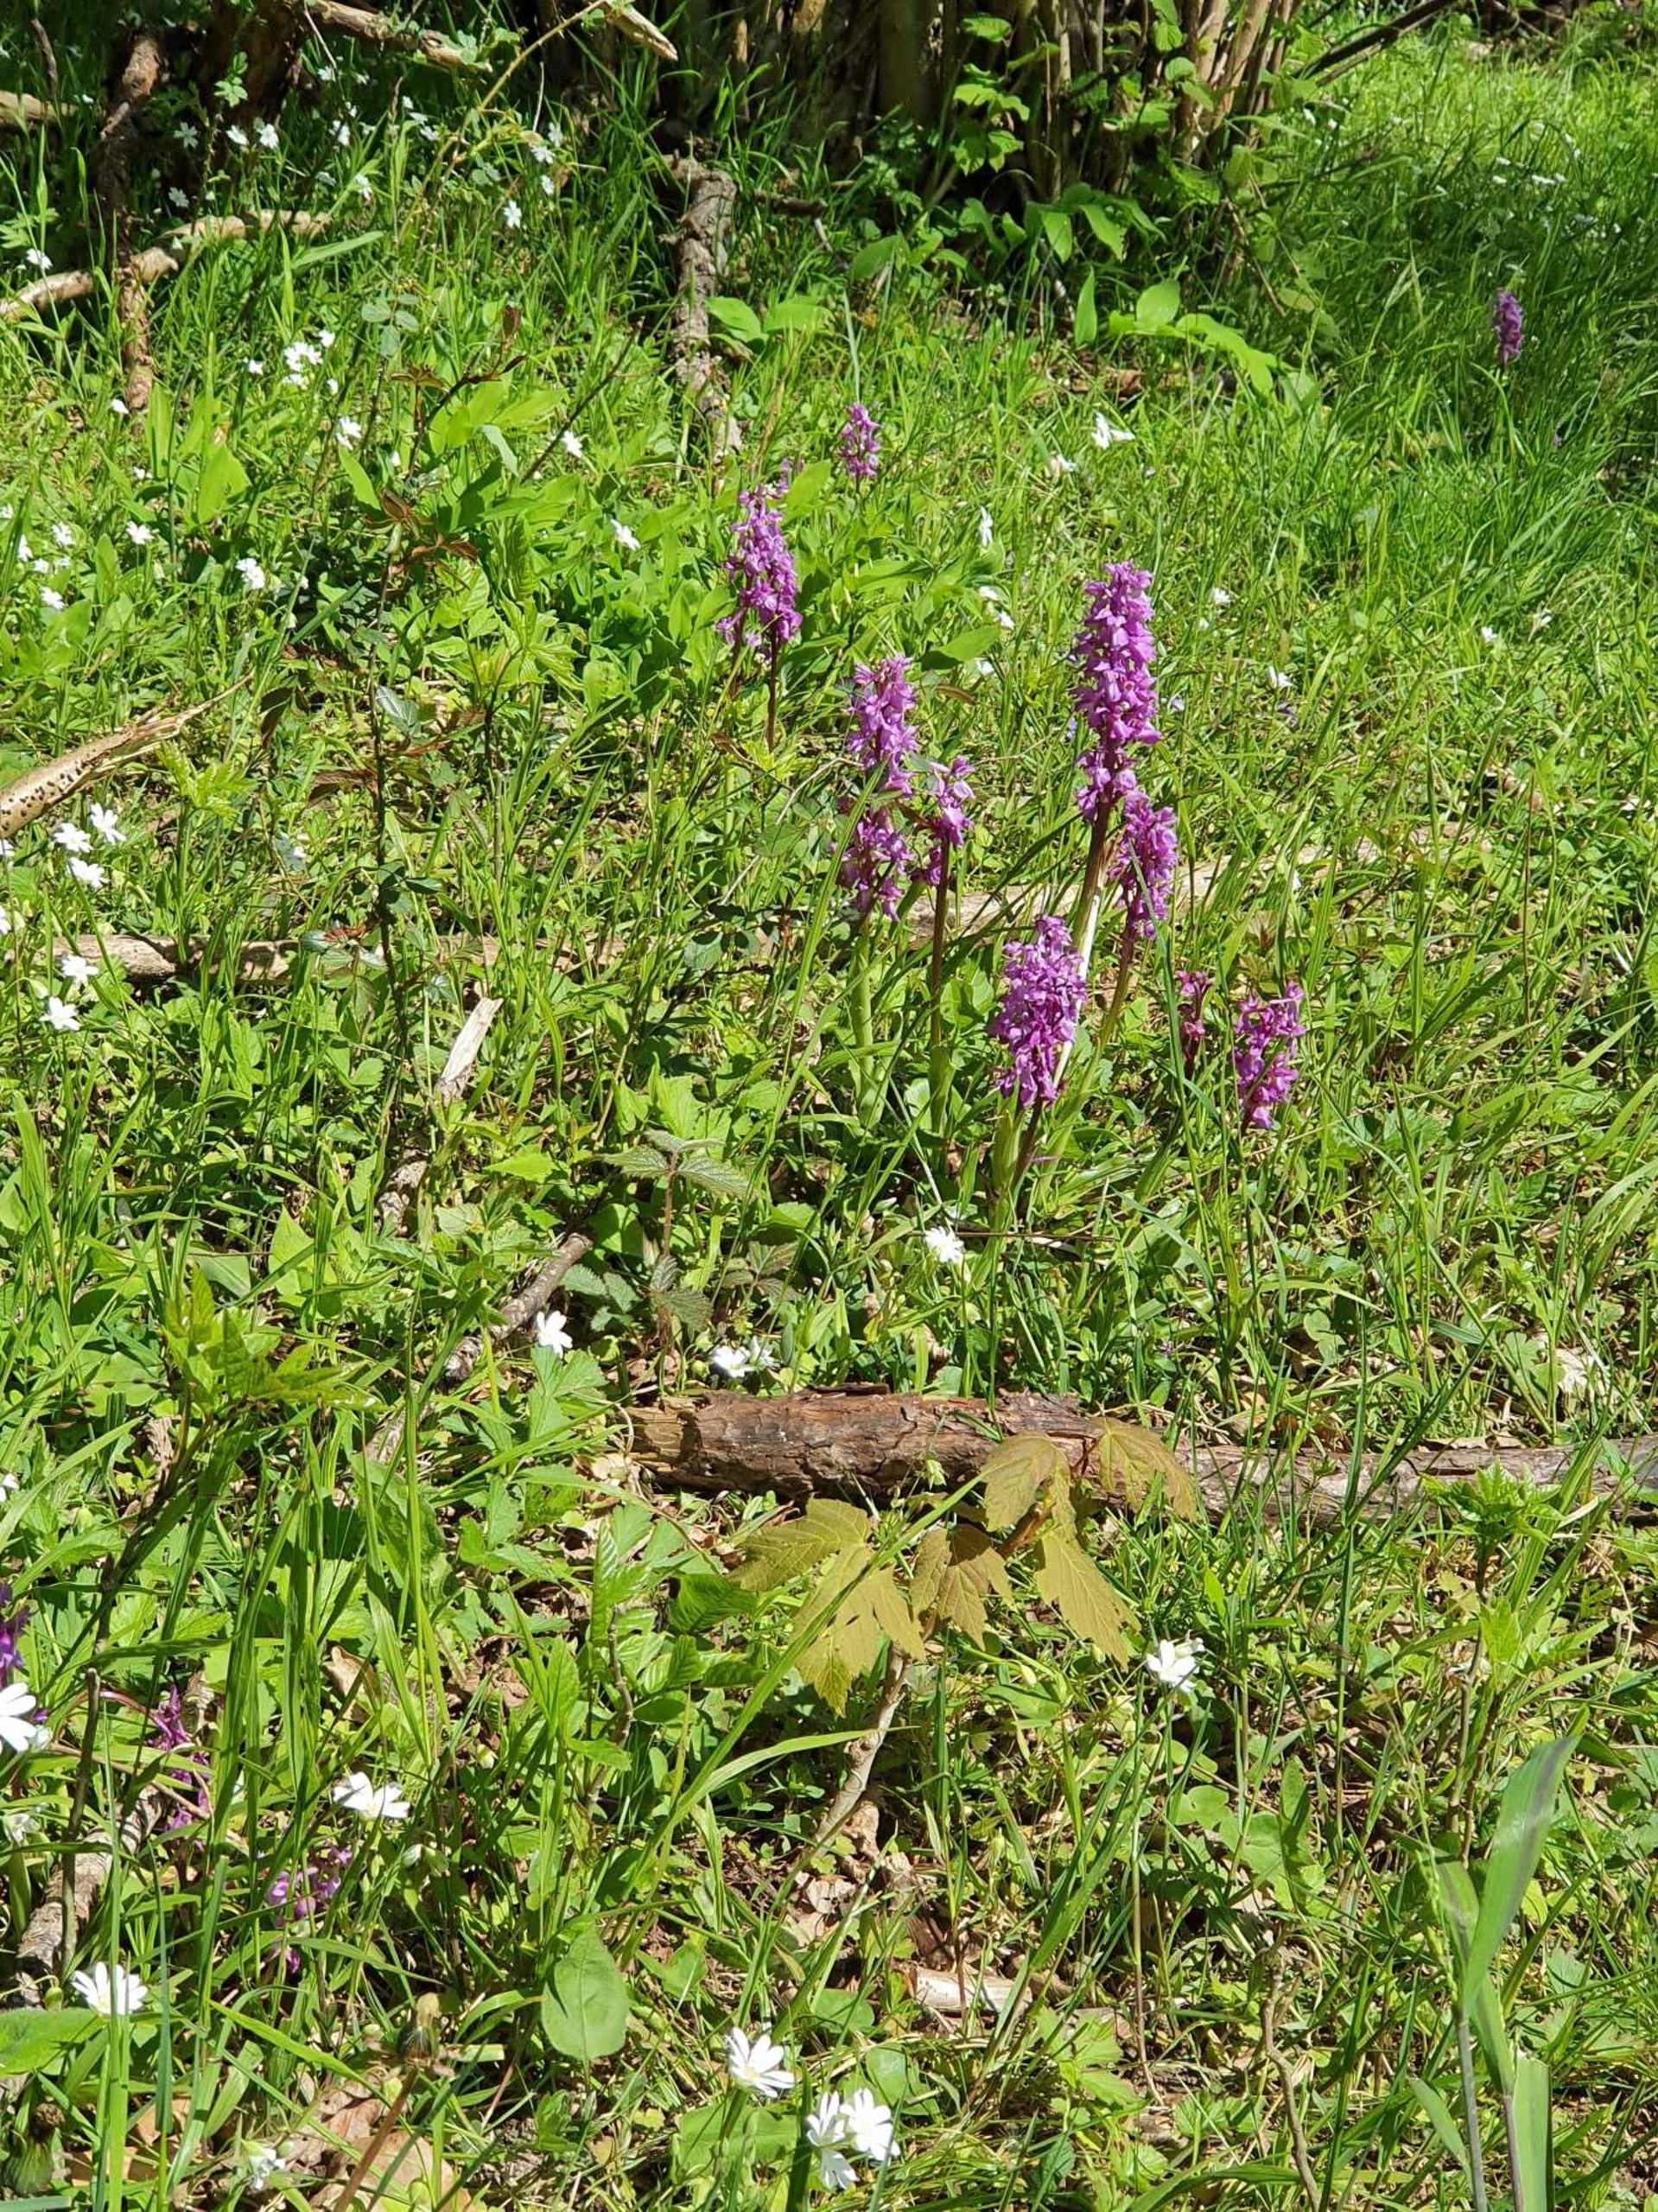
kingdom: Plantae
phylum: Tracheophyta
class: Liliopsida
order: Asparagales
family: Orchidaceae
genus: Orchis
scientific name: Orchis mascula
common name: Tyndakset gøgeurt
